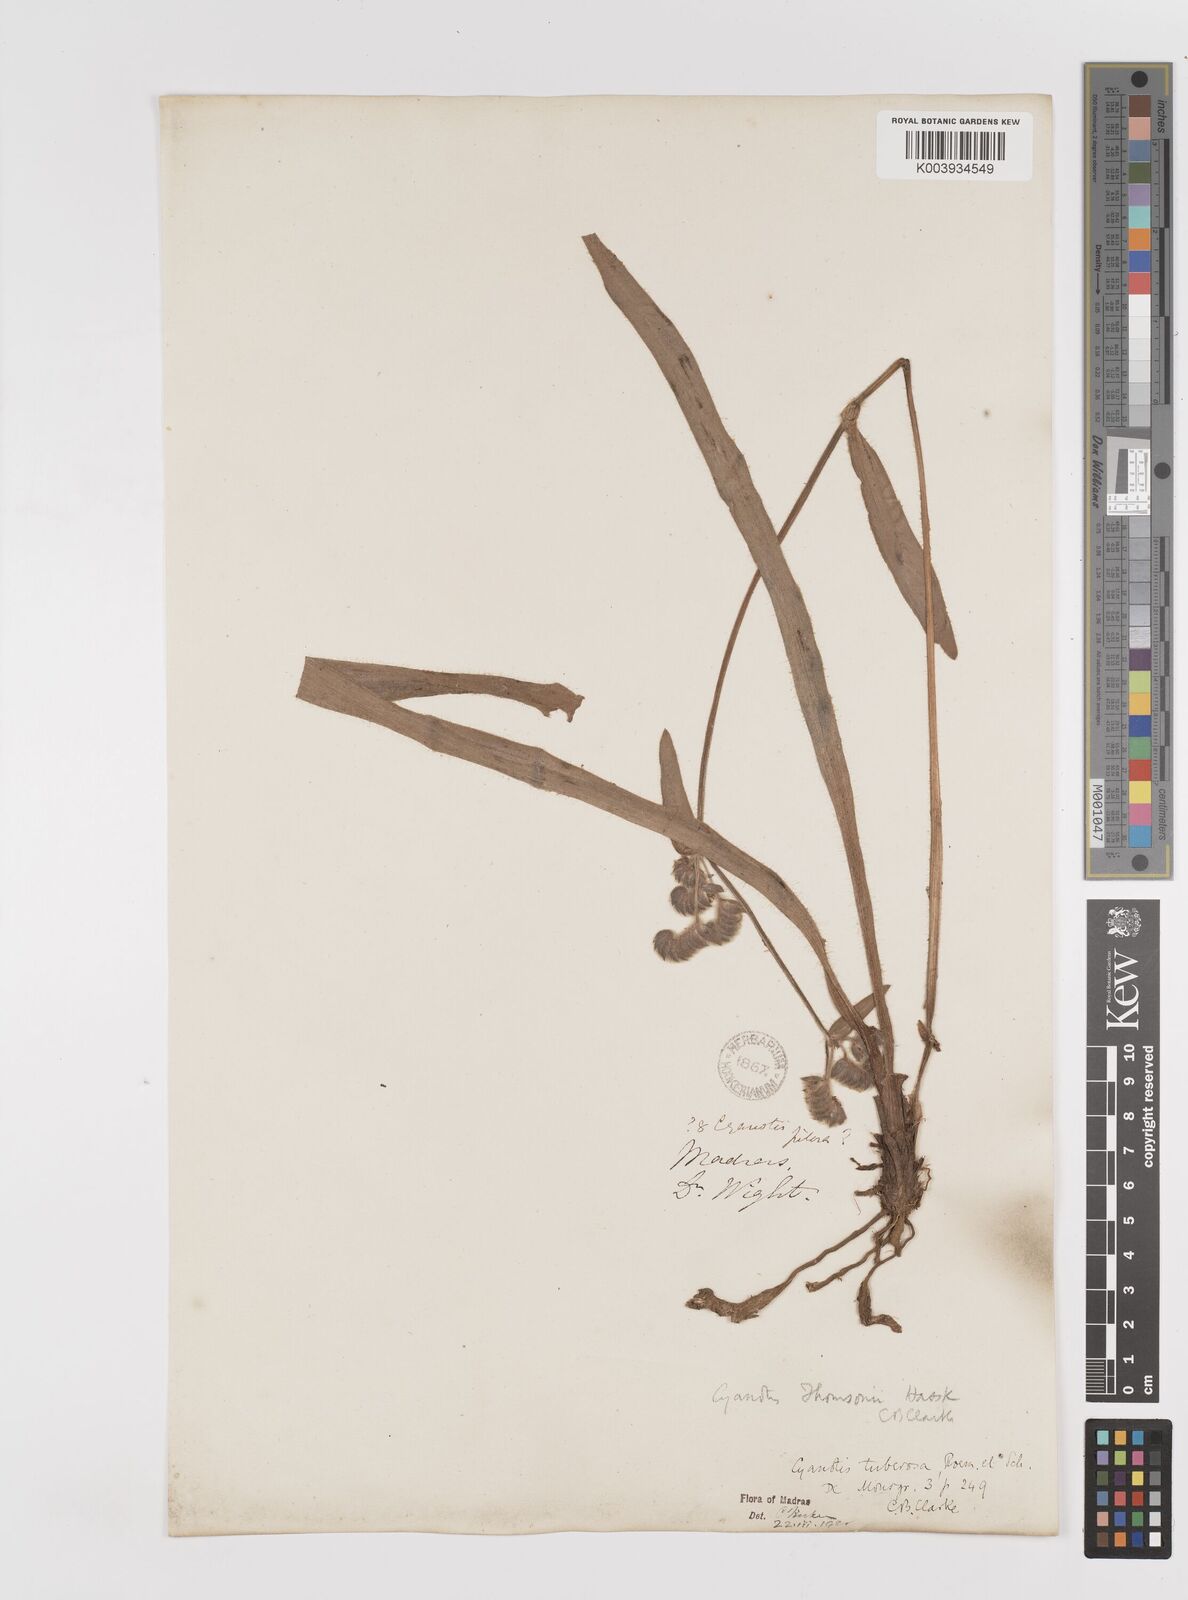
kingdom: Plantae
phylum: Tracheophyta
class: Liliopsida
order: Commelinales
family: Commelinaceae
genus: Cyanotis
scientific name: Cyanotis tuberosa
